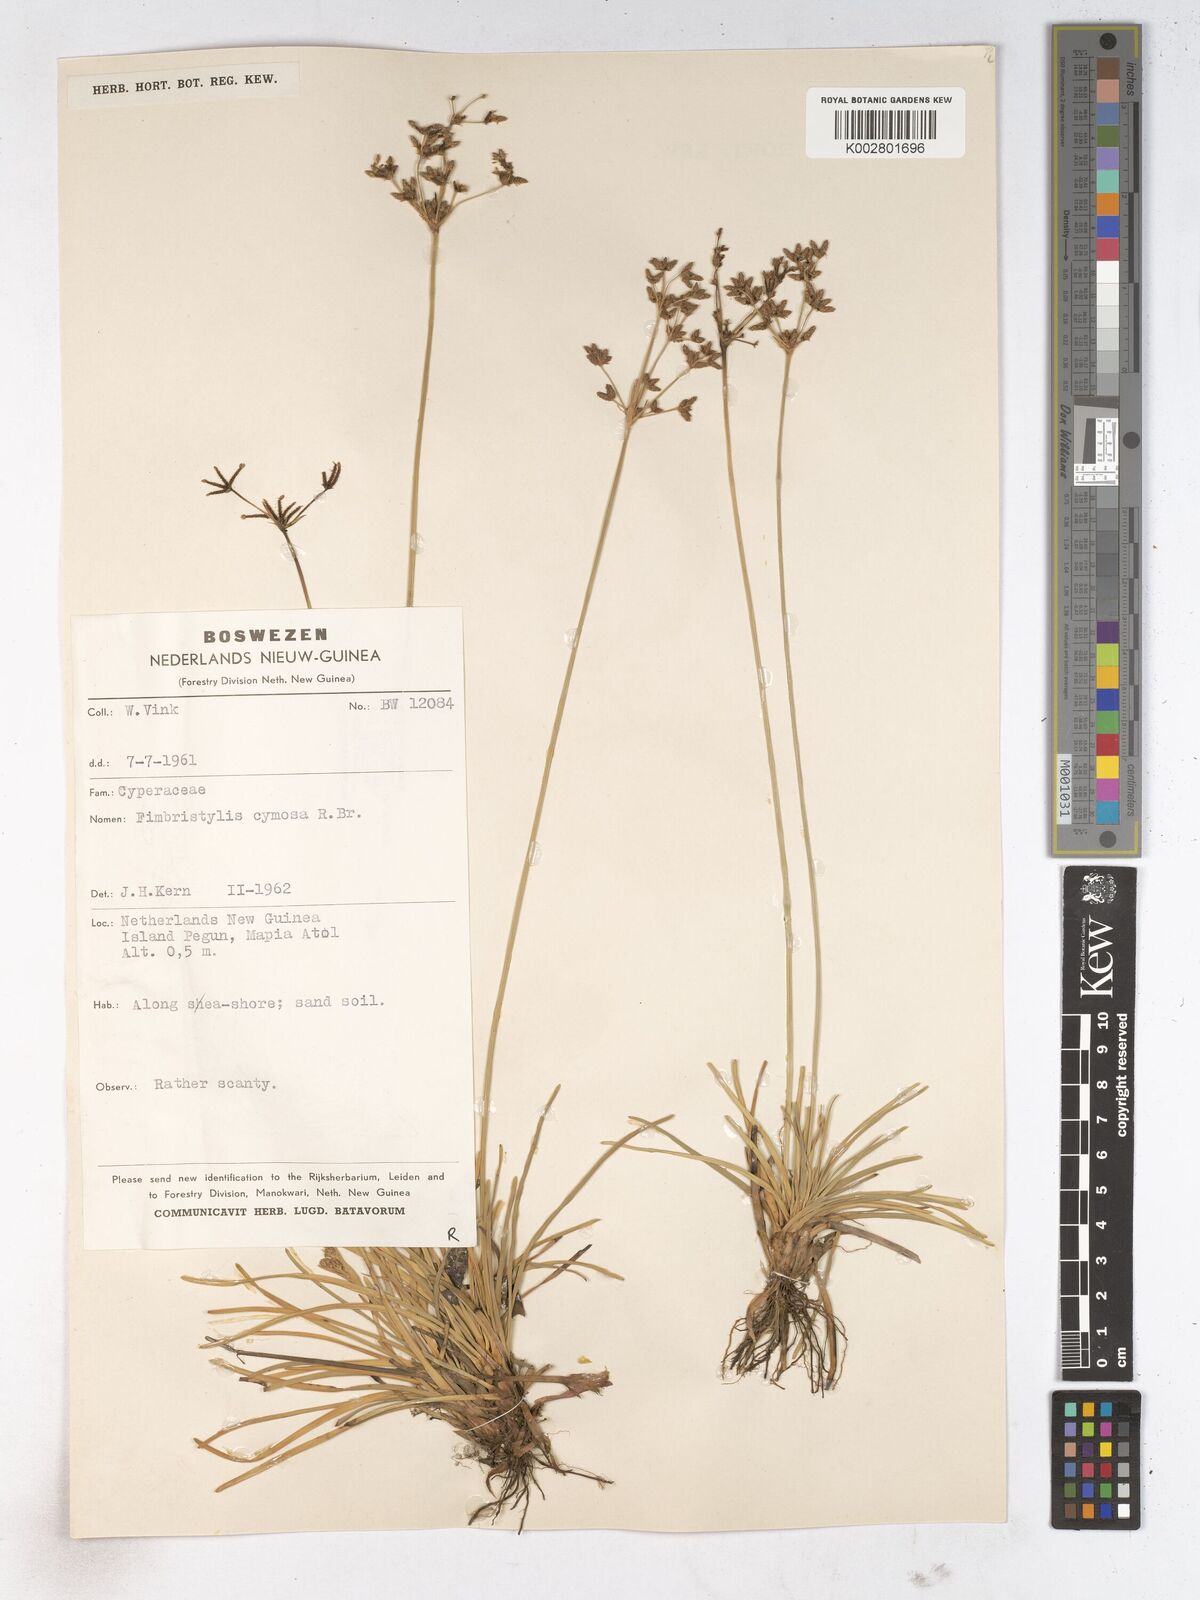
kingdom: Plantae
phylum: Tracheophyta
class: Liliopsida
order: Poales
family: Cyperaceae
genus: Fimbristylis
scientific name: Fimbristylis cymosa
